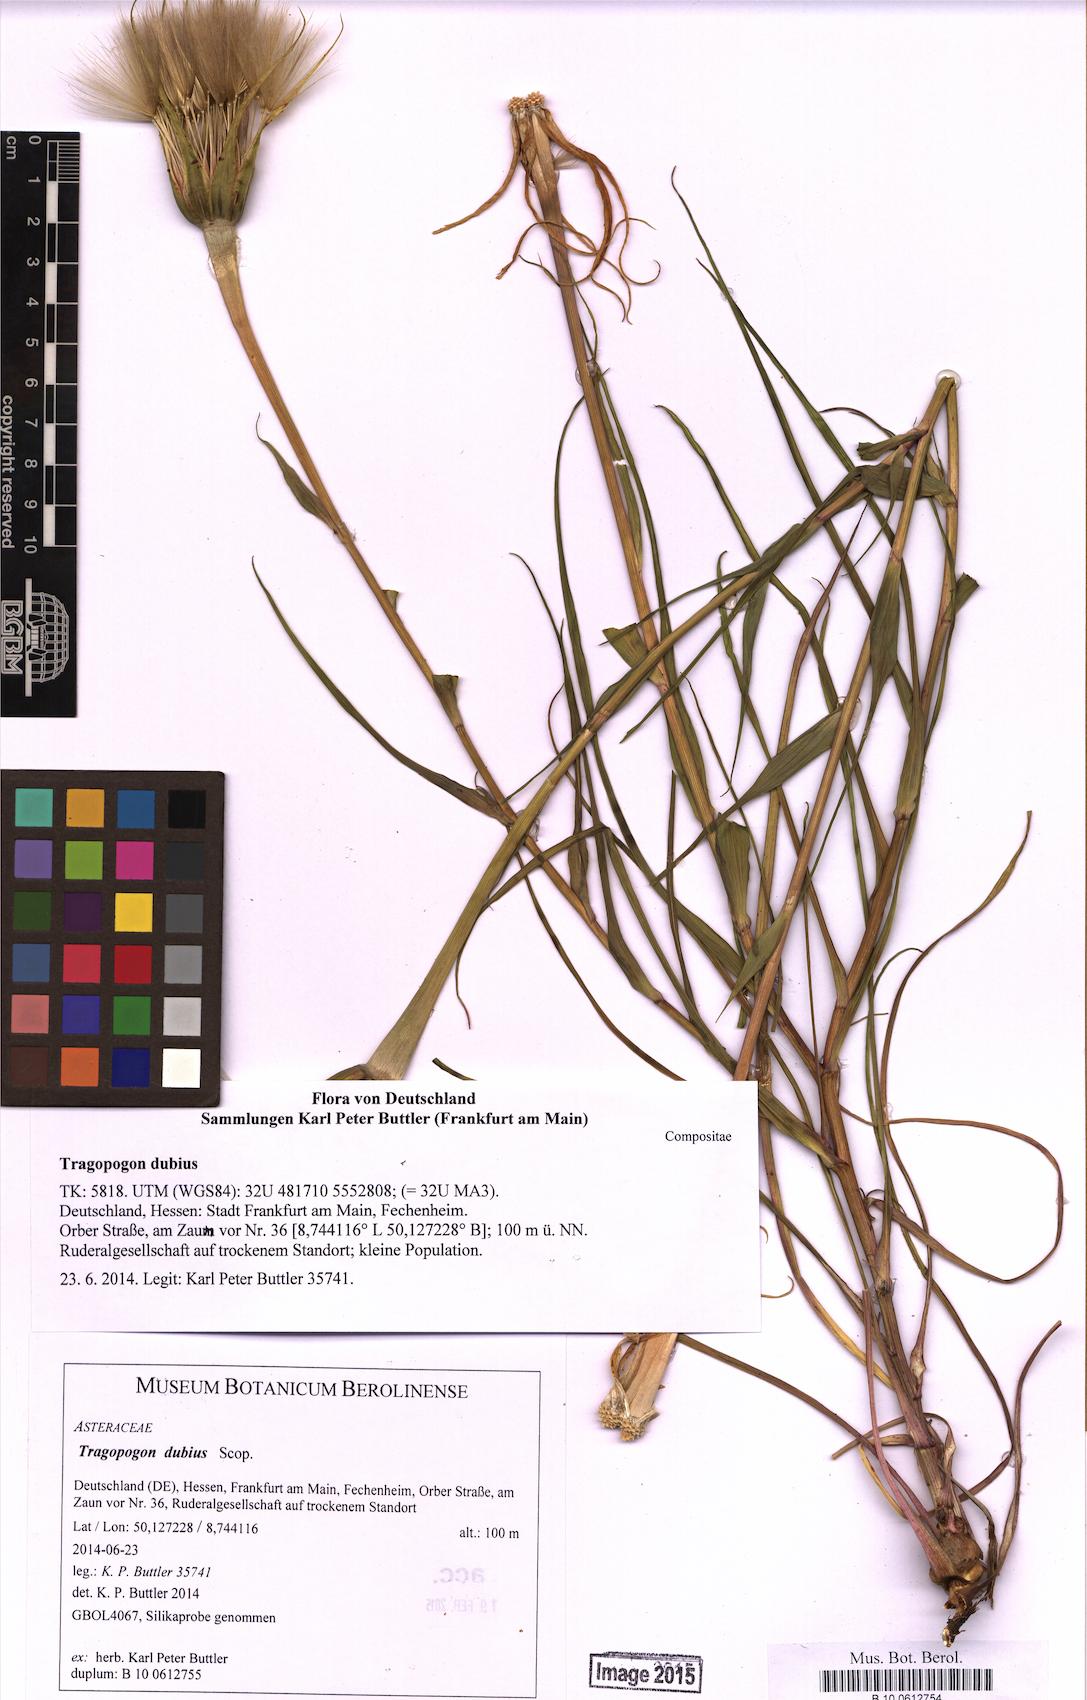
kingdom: Plantae
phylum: Tracheophyta
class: Magnoliopsida
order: Asterales
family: Asteraceae
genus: Tragopogon
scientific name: Tragopogon dubius
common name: Yellow salsify
